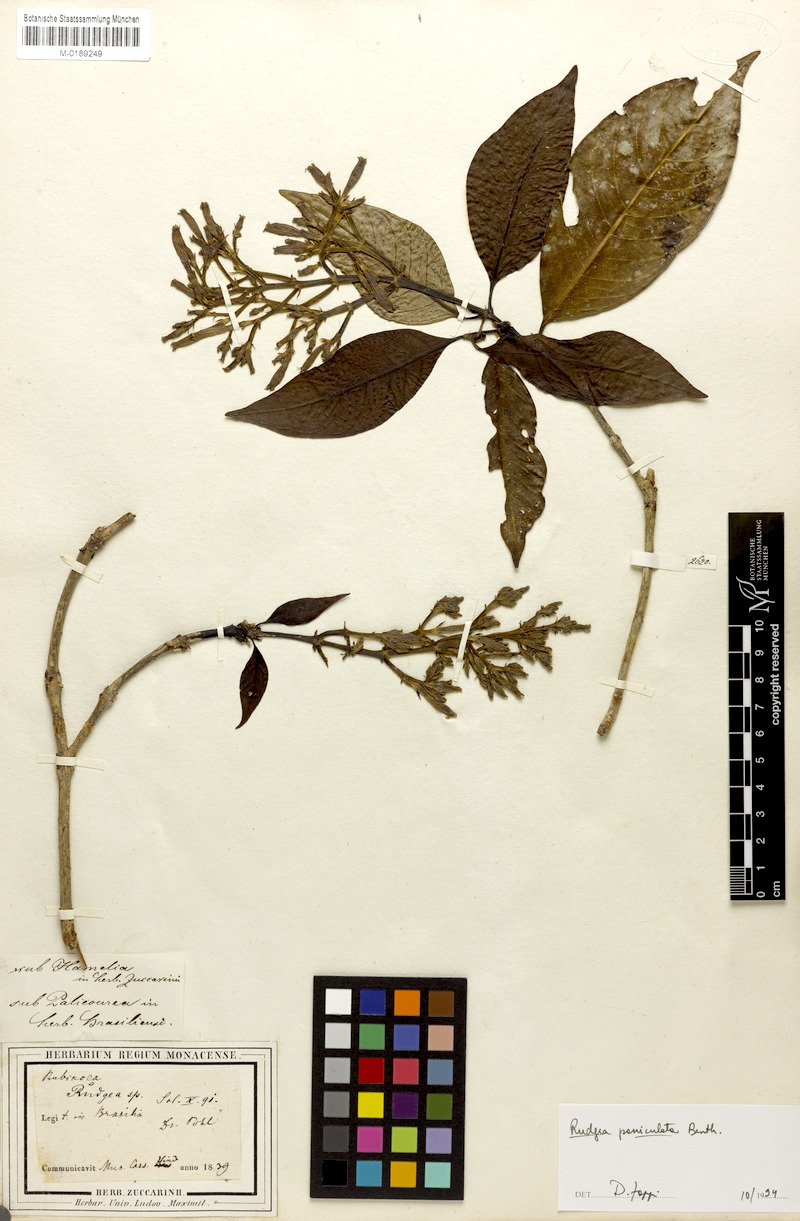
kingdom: Plantae
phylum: Tracheophyta
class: Magnoliopsida
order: Gentianales
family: Rubiaceae
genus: Rudgea
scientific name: Rudgea jasminoides
